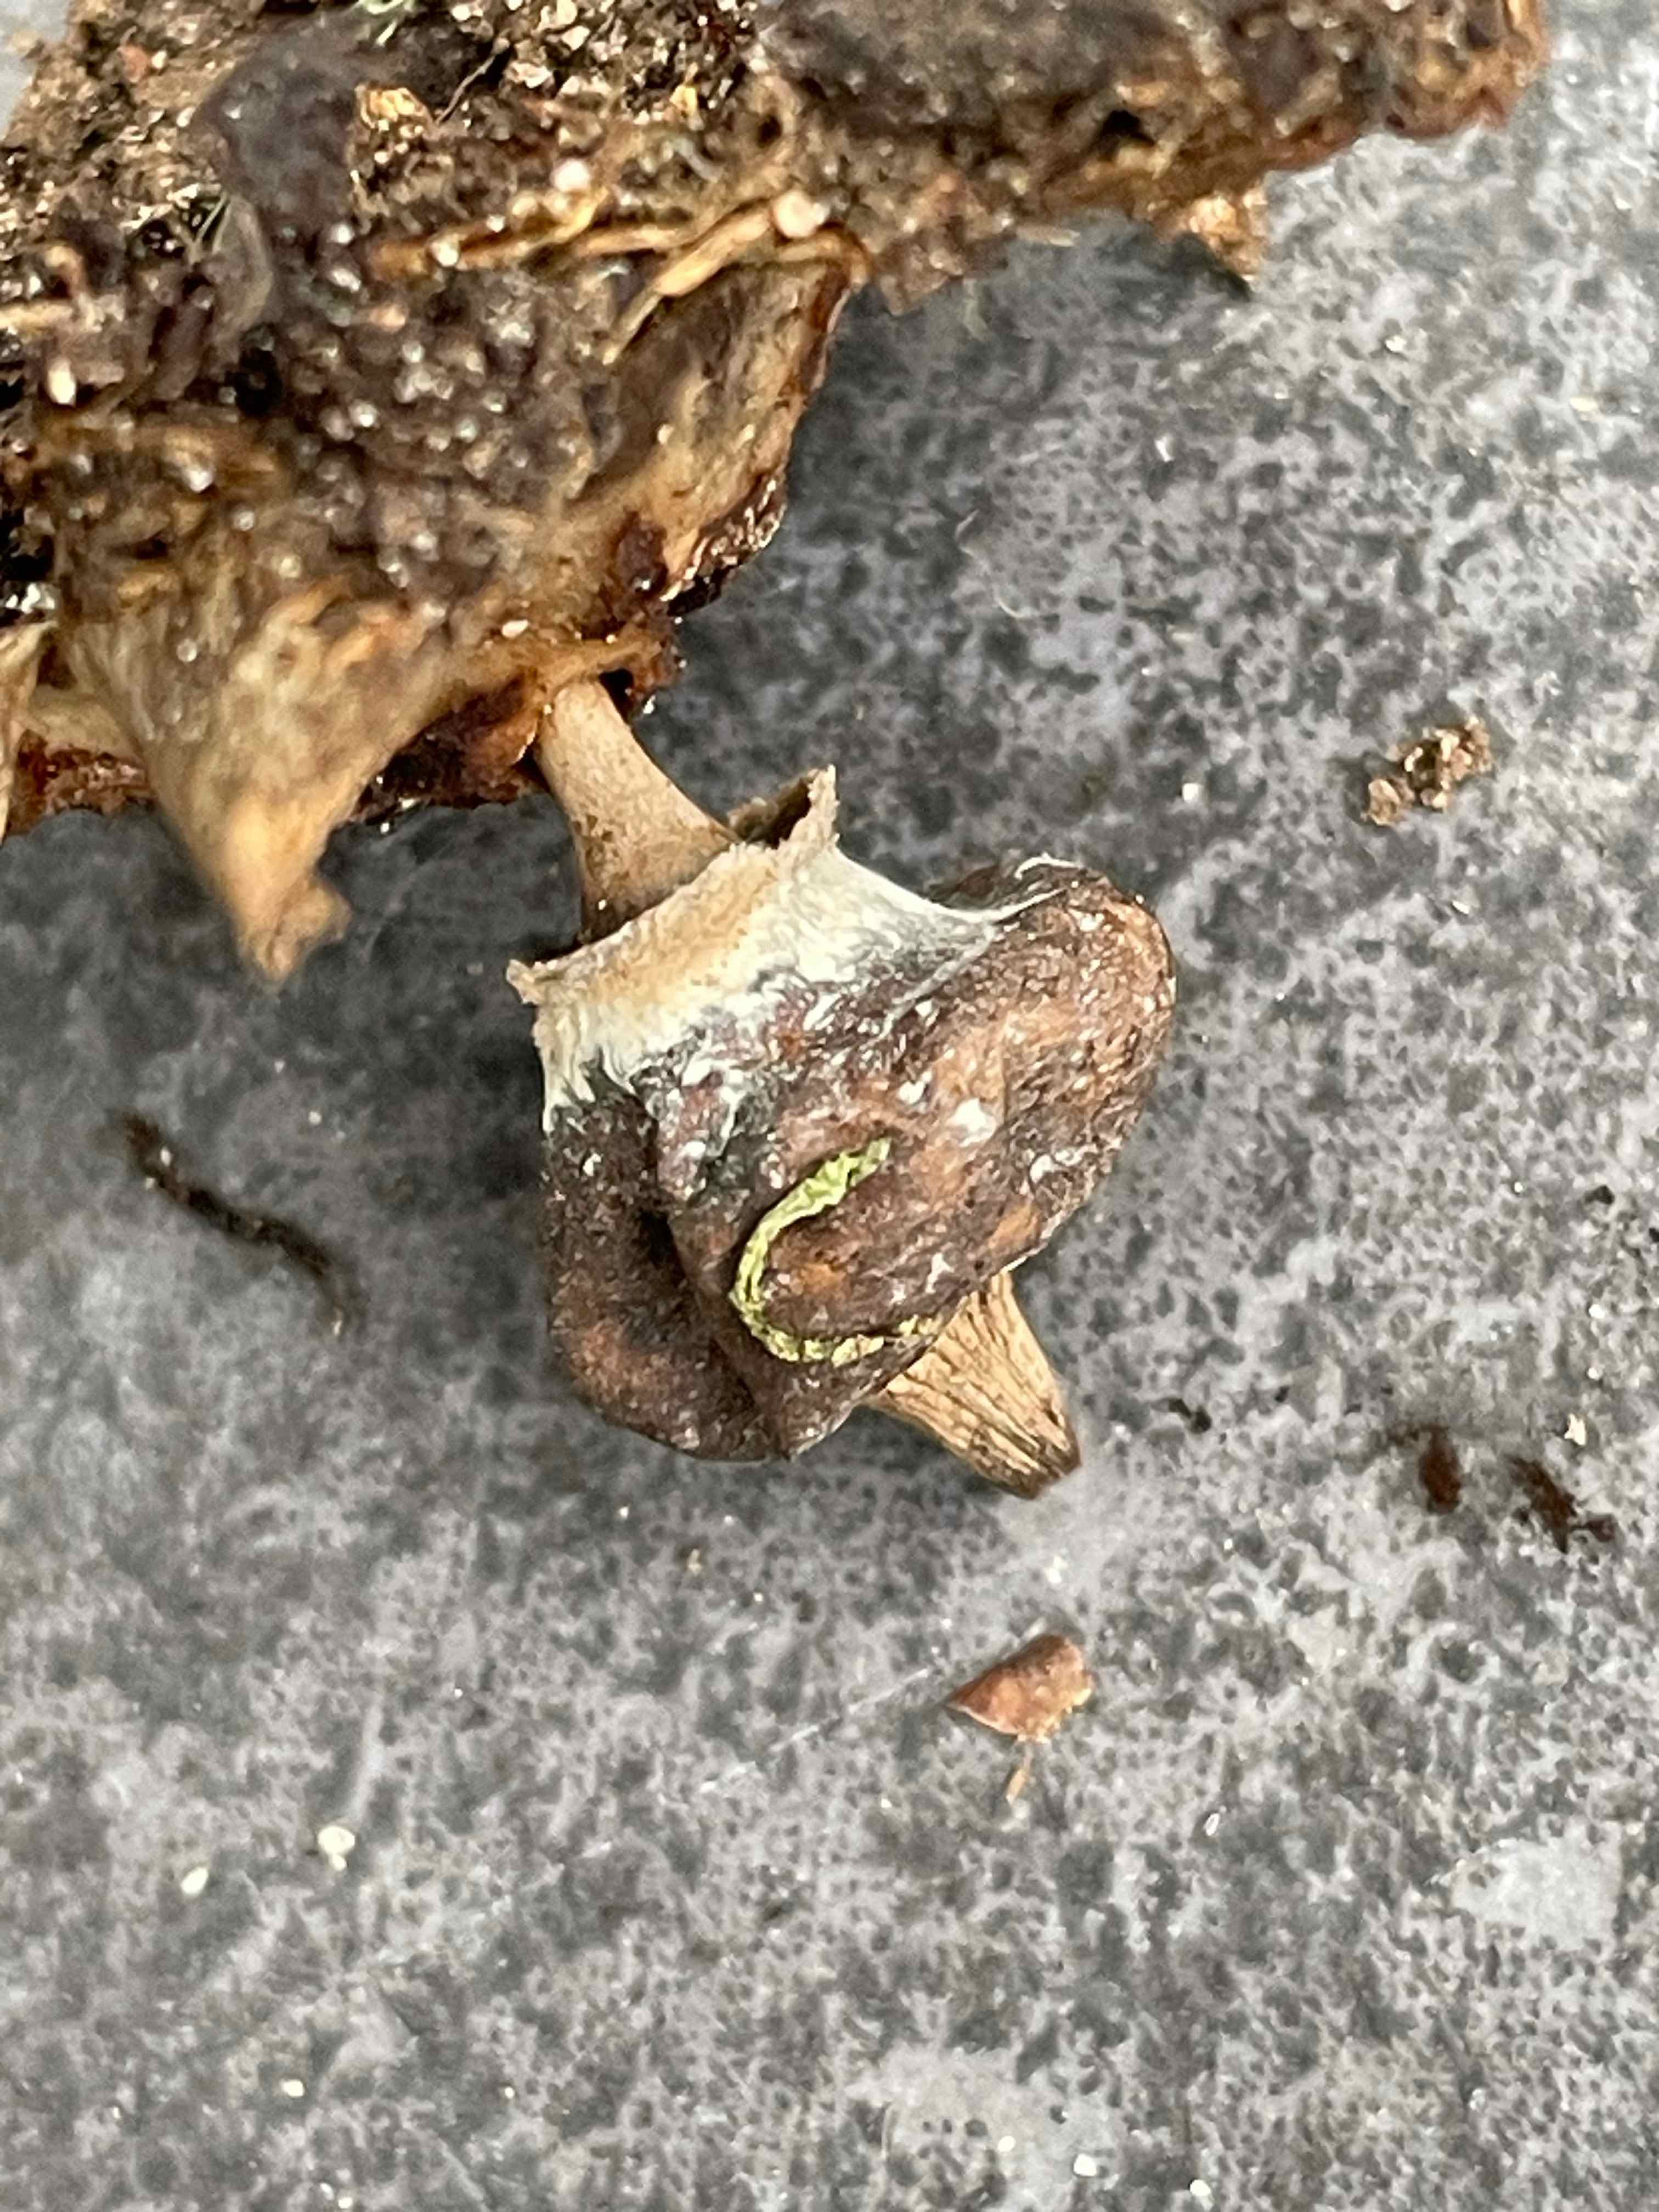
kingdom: Fungi
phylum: Basidiomycota
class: Agaricomycetes
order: Geastrales
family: Geastraceae
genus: Geastrum
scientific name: Geastrum striatum
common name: krave-stjernebold
